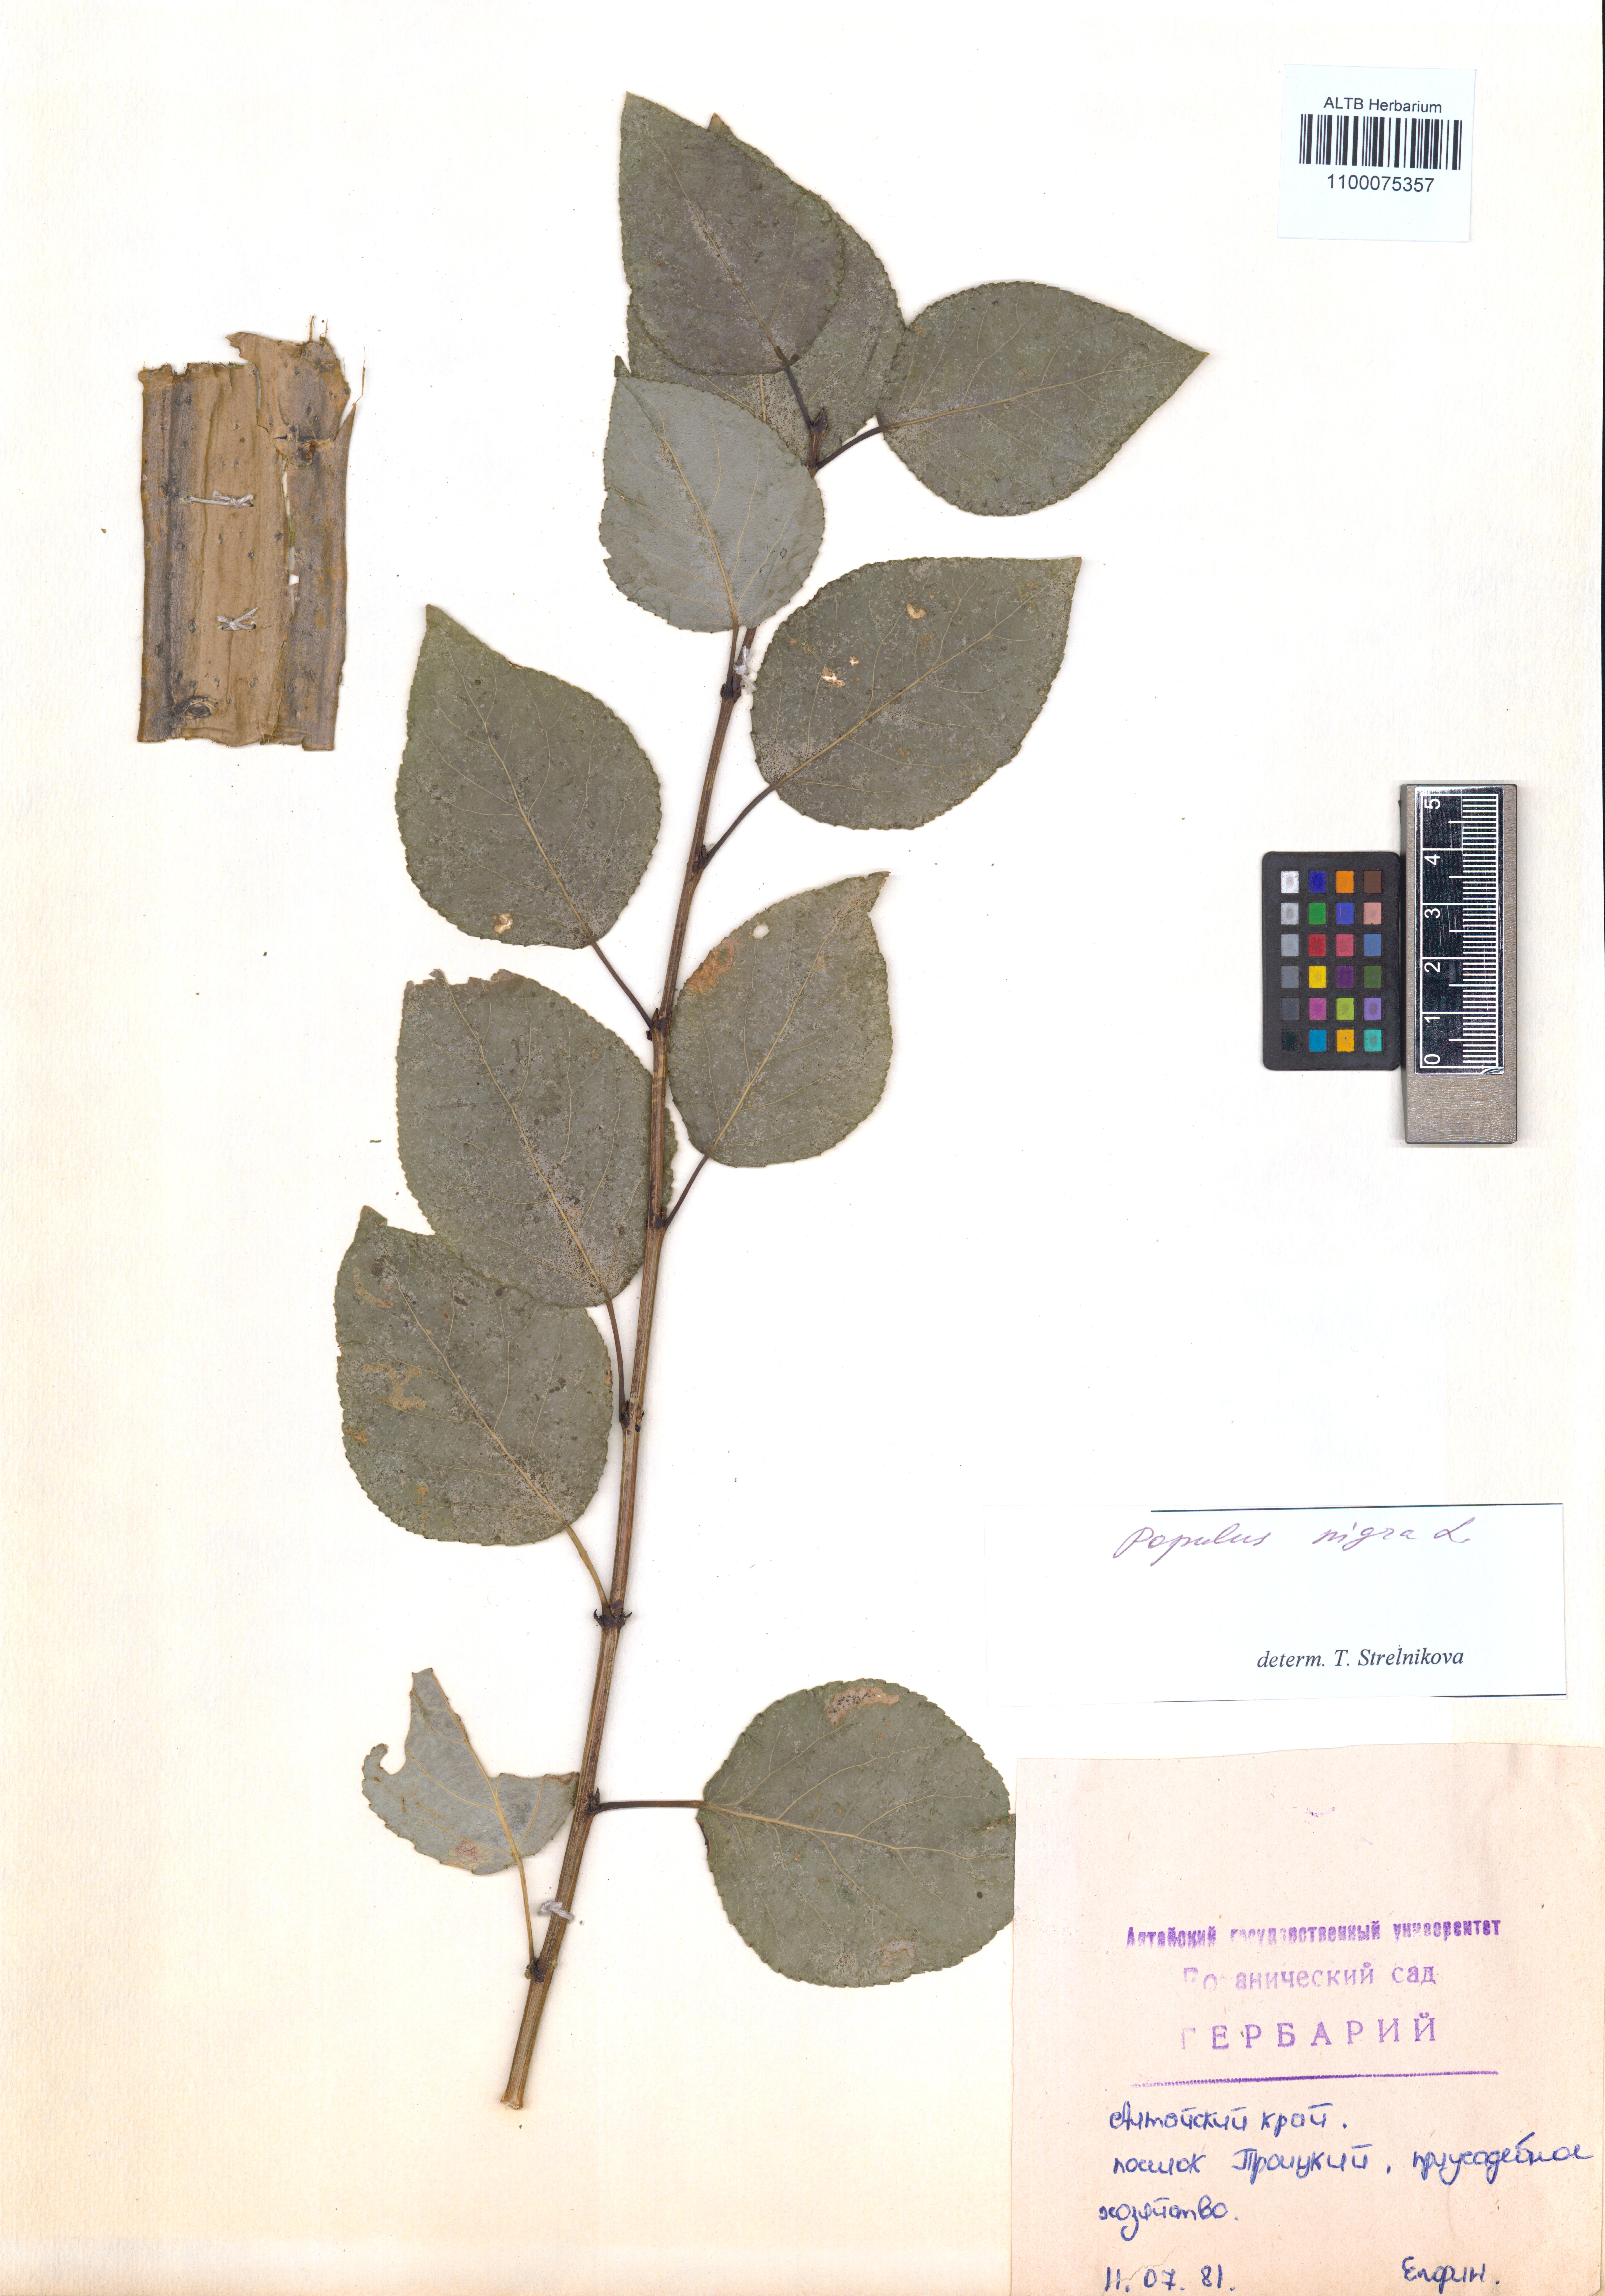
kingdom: Plantae
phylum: Tracheophyta
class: Magnoliopsida
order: Malpighiales
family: Salicaceae
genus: Populus
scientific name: Populus nigra
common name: Black poplar
